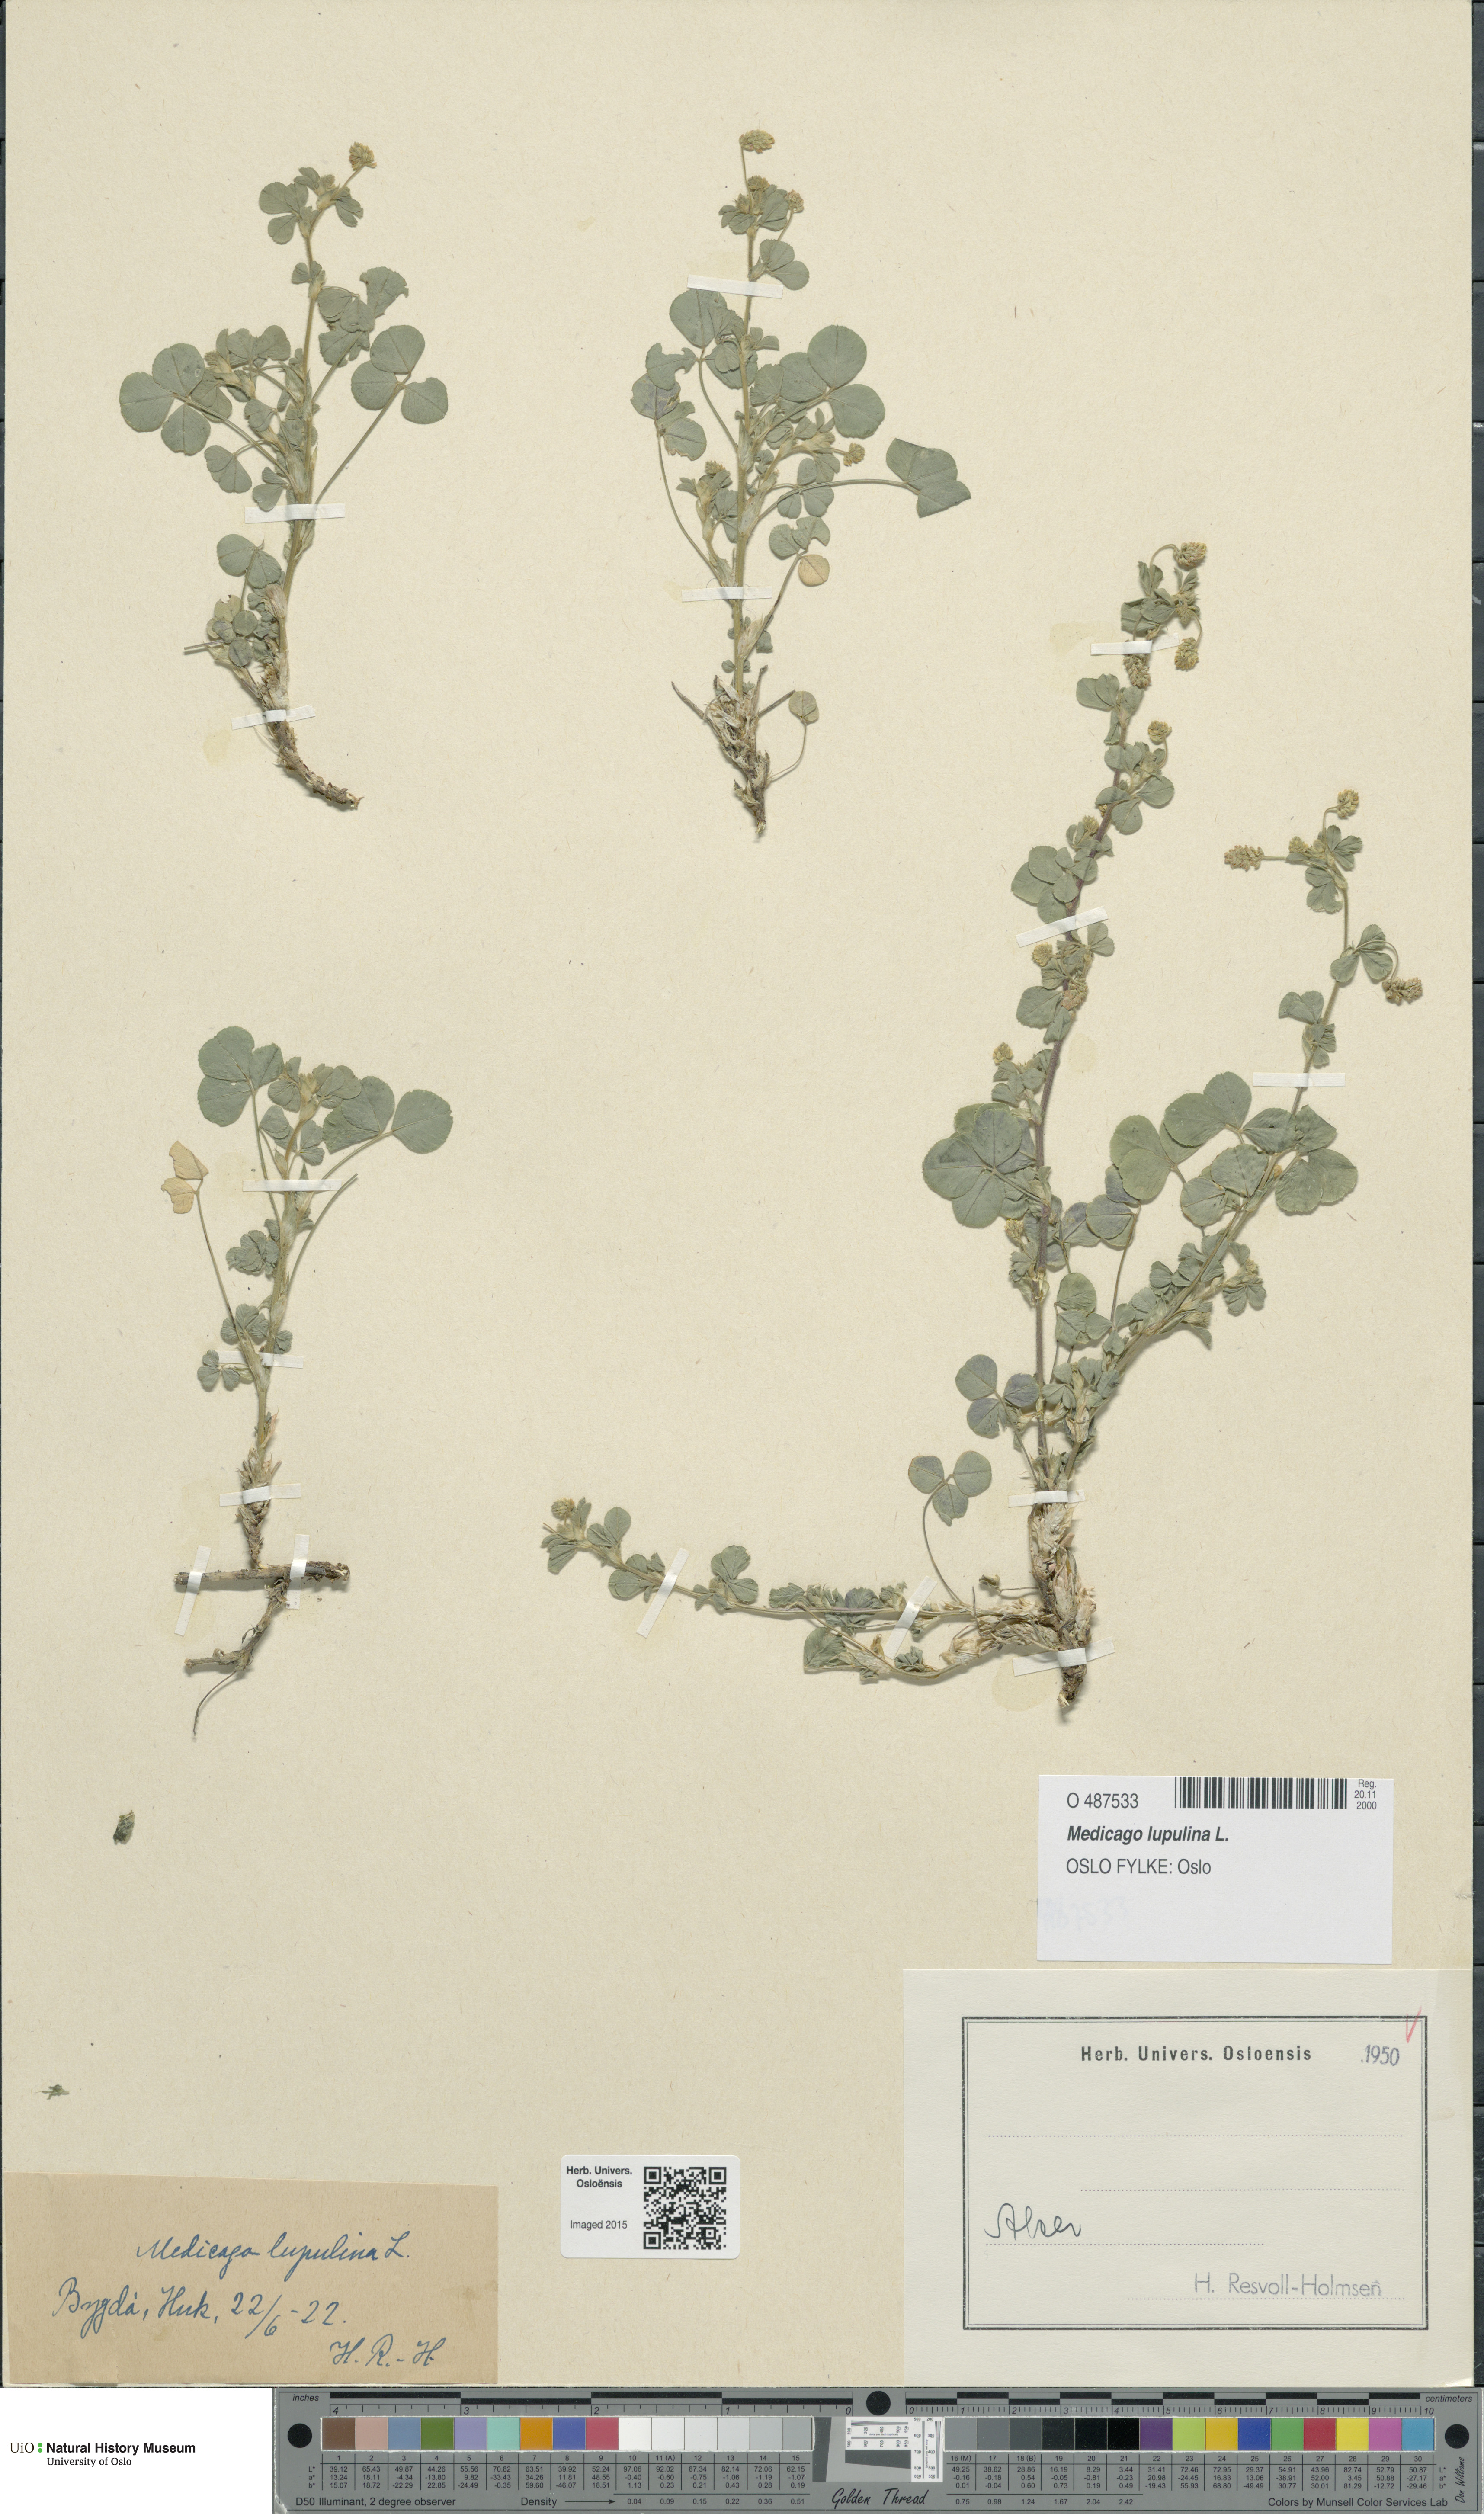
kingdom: Plantae
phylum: Tracheophyta
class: Magnoliopsida
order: Fabales
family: Fabaceae
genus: Medicago
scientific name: Medicago lupulina
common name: Black medick
